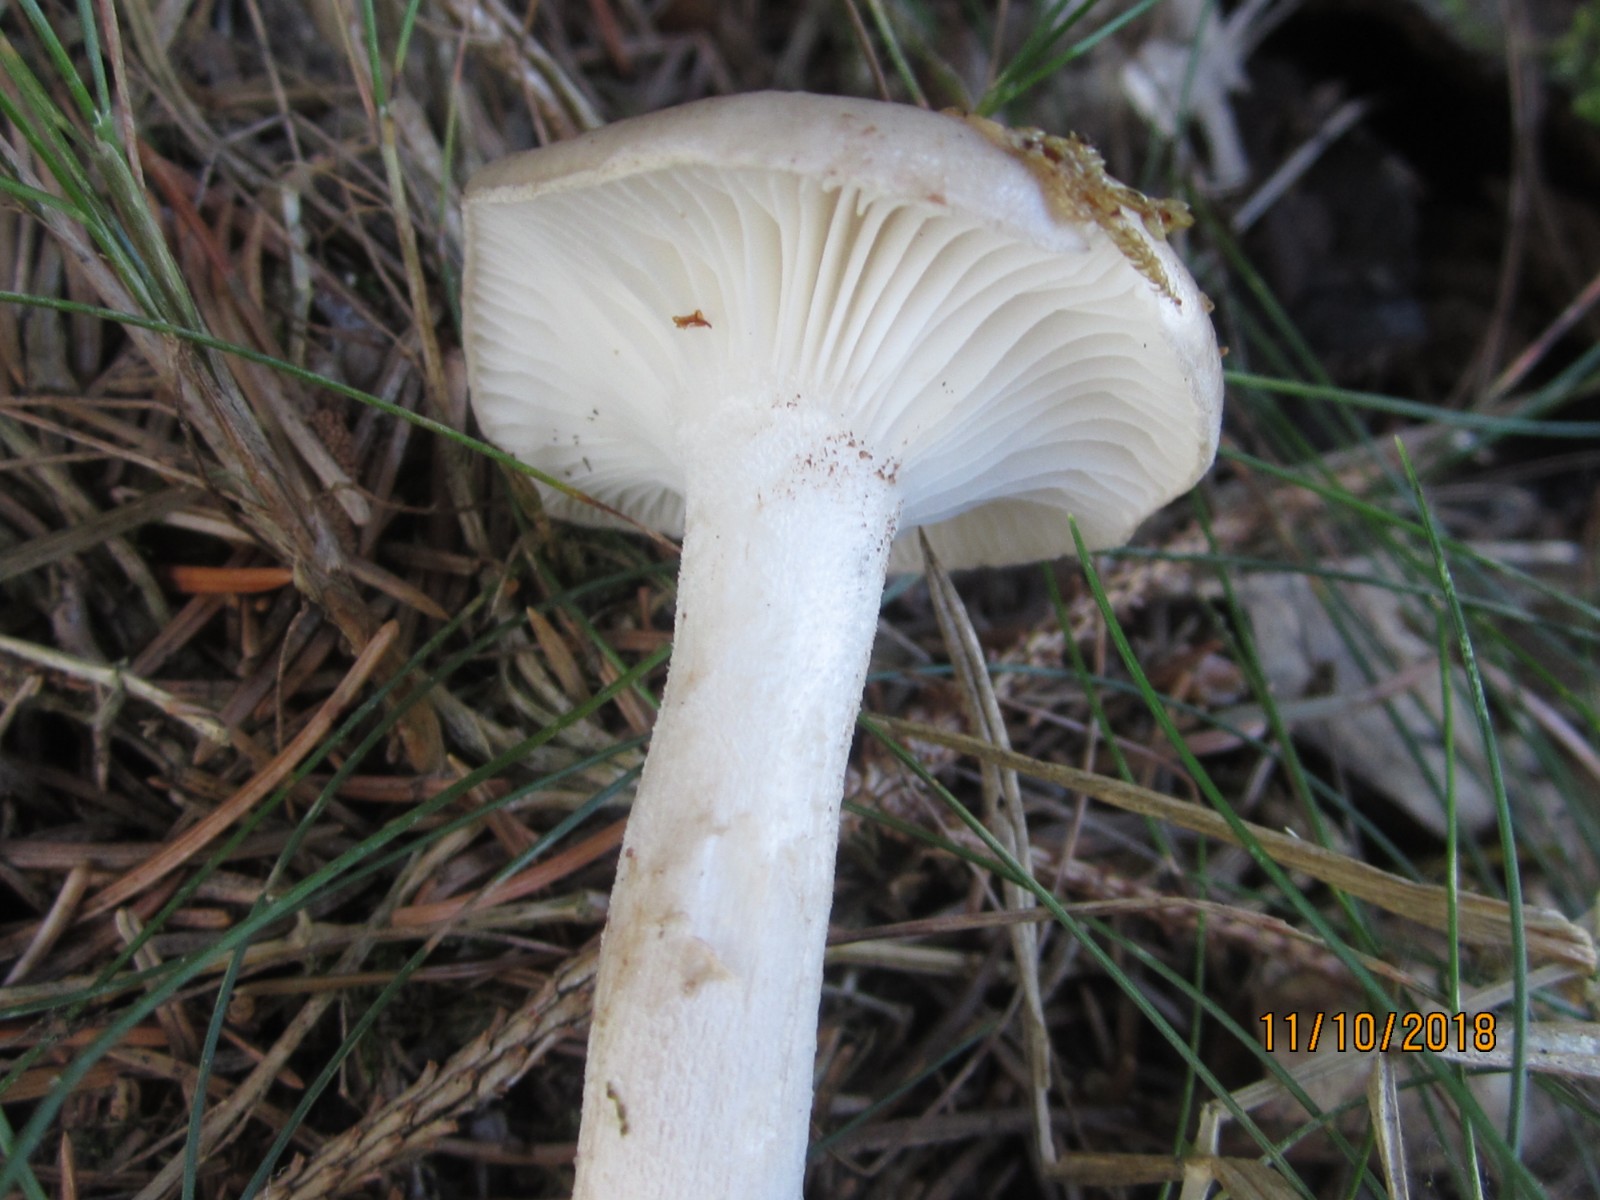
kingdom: Fungi
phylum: Basidiomycota
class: Agaricomycetes
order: Agaricales
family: Hygrophoraceae
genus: Hygrophorus
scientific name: Hygrophorus agathosmus
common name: vellugtende sneglehat
